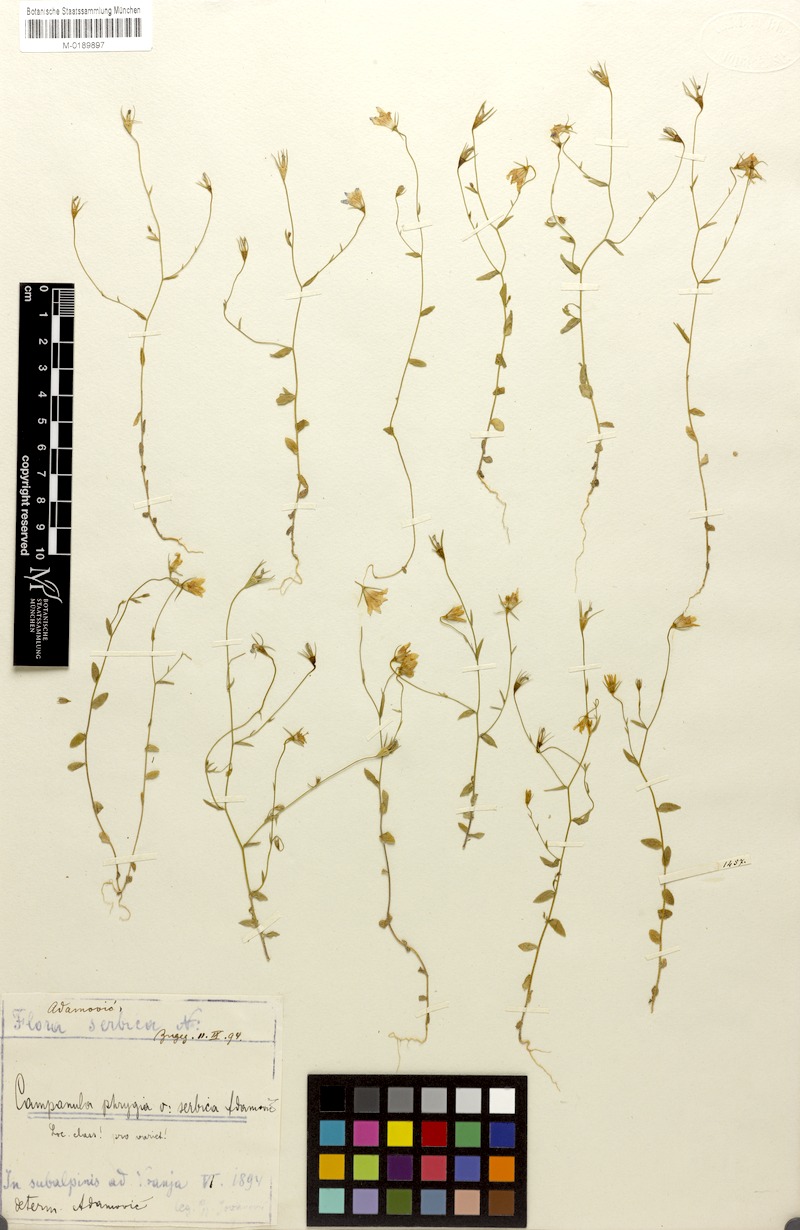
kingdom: Plantae
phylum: Tracheophyta
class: Magnoliopsida
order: Asterales
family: Campanulaceae
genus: Campanula
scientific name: Campanula phrygia
